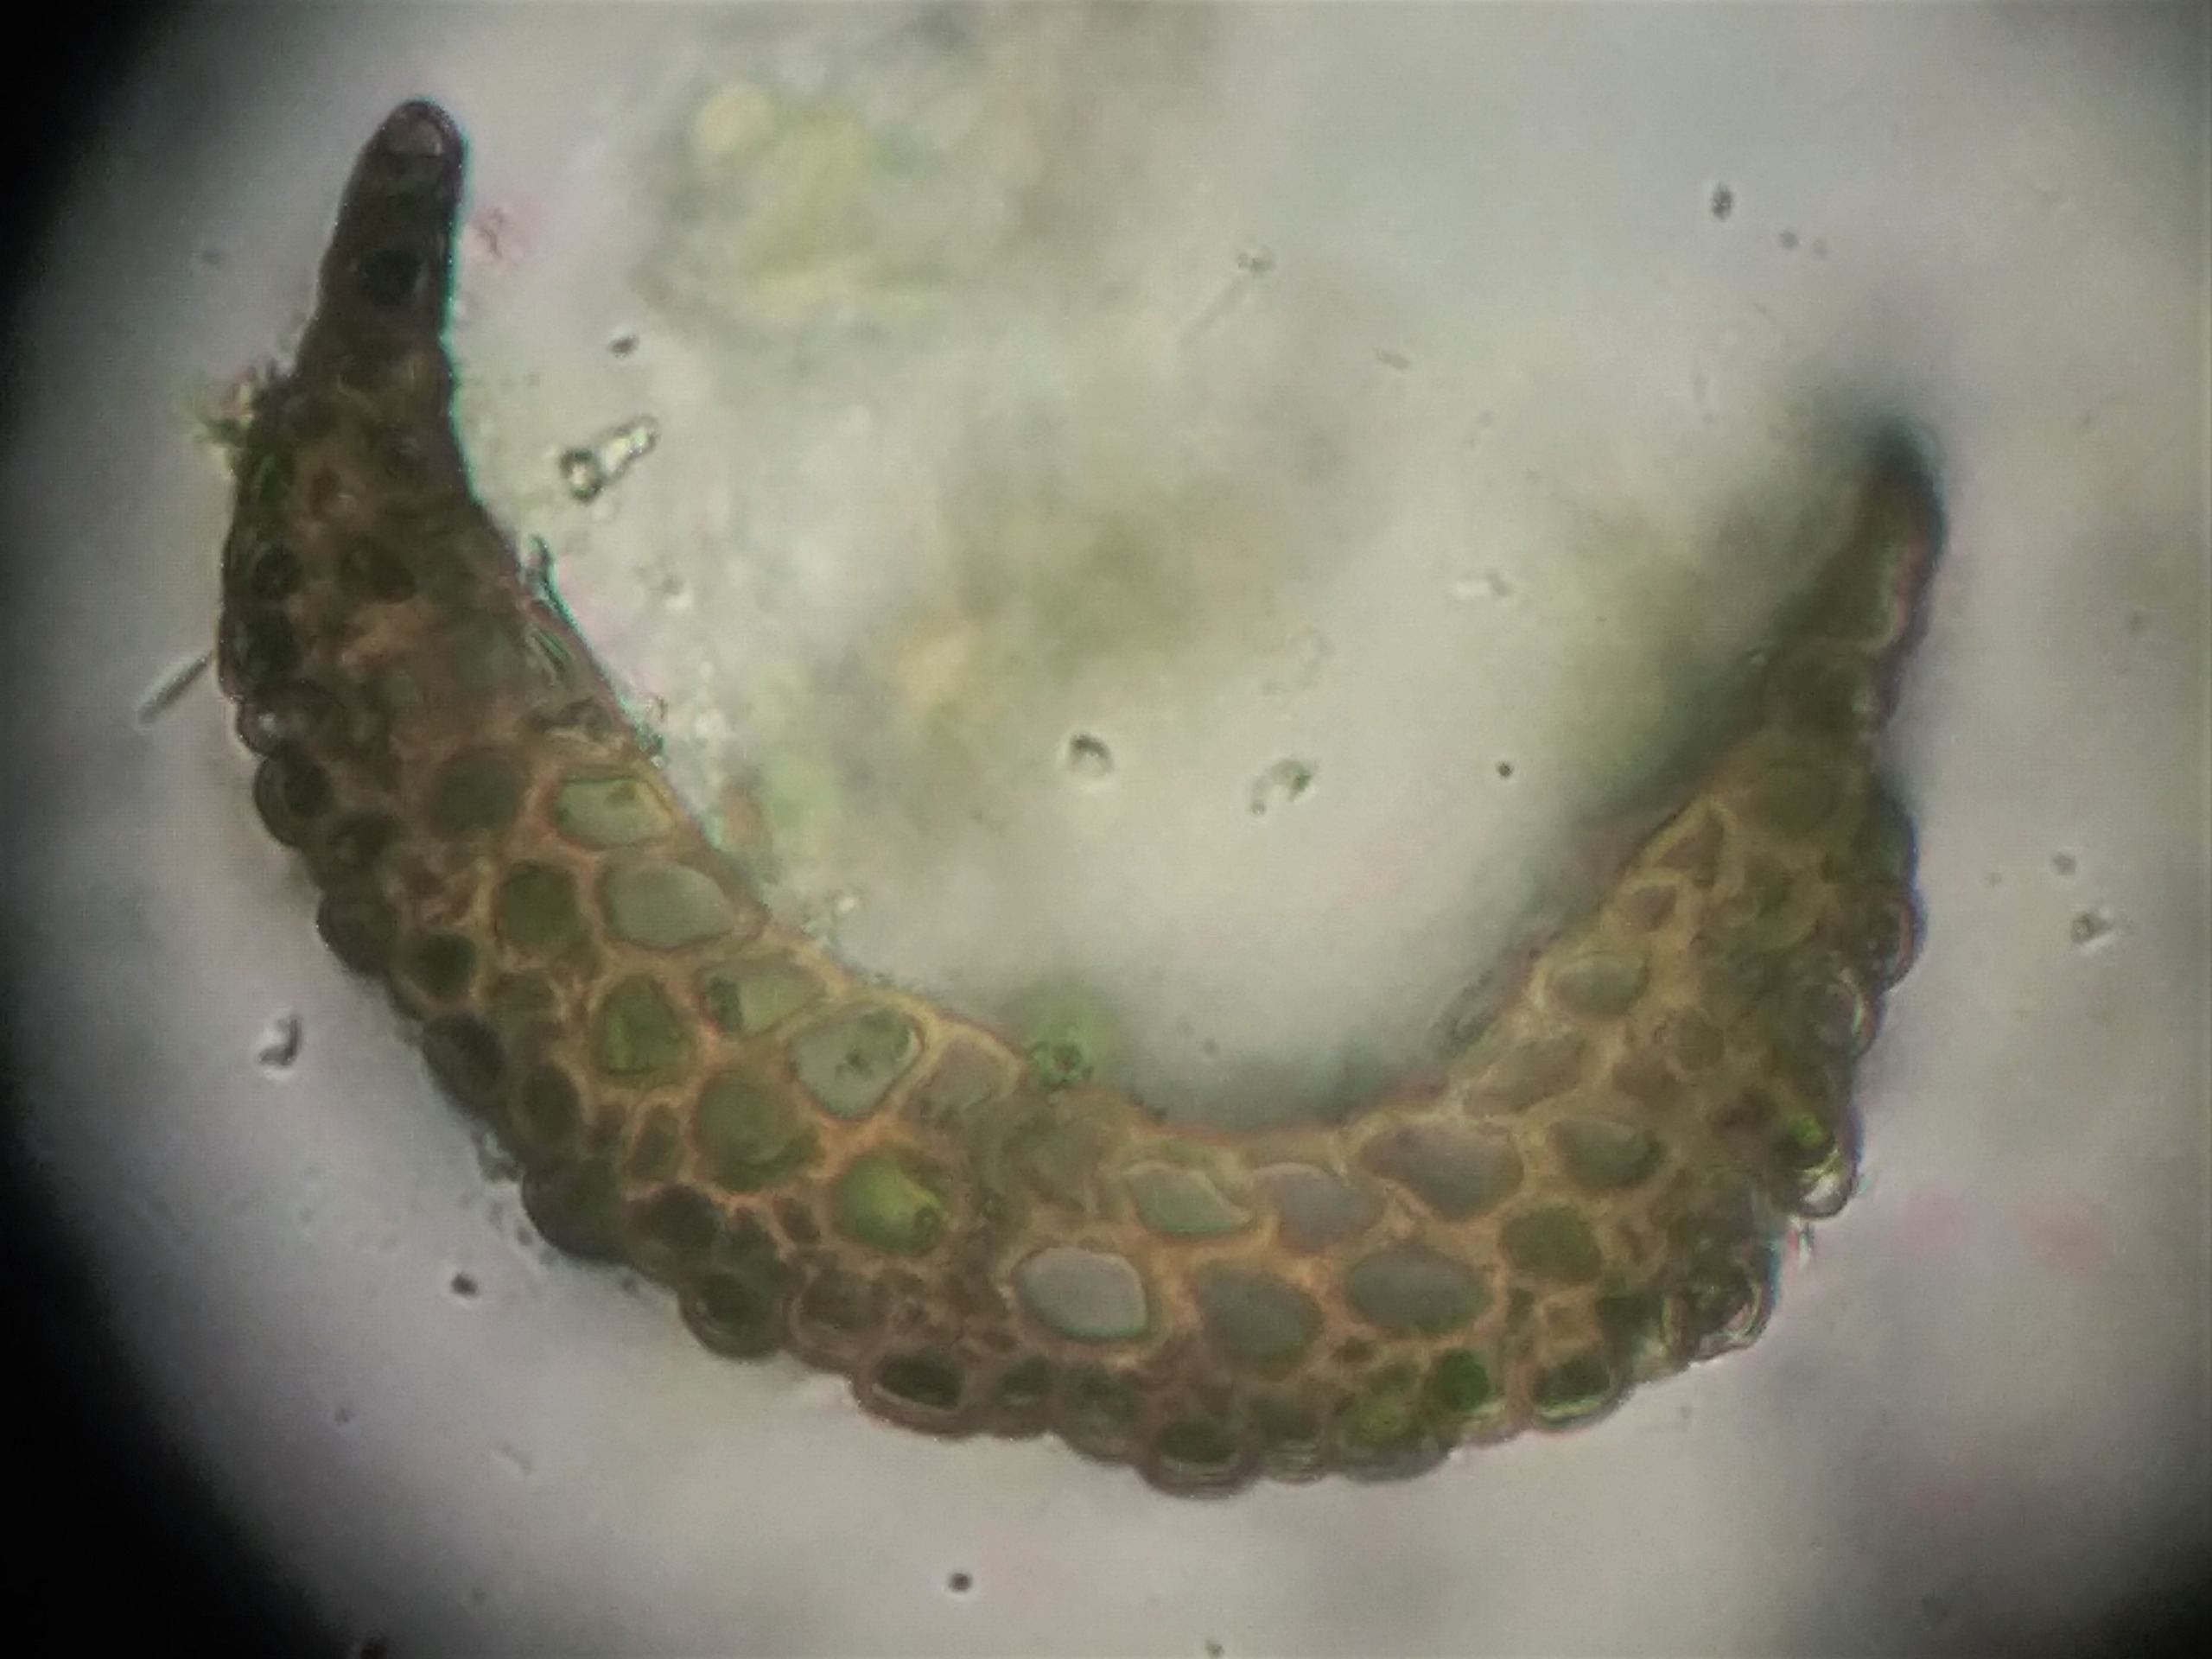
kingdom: Plantae
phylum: Bryophyta
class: Bryopsida
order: Dicranales
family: Leucobryaceae
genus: Campylopus
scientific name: Campylopus pyriformis
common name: Almindelig bredribbe
